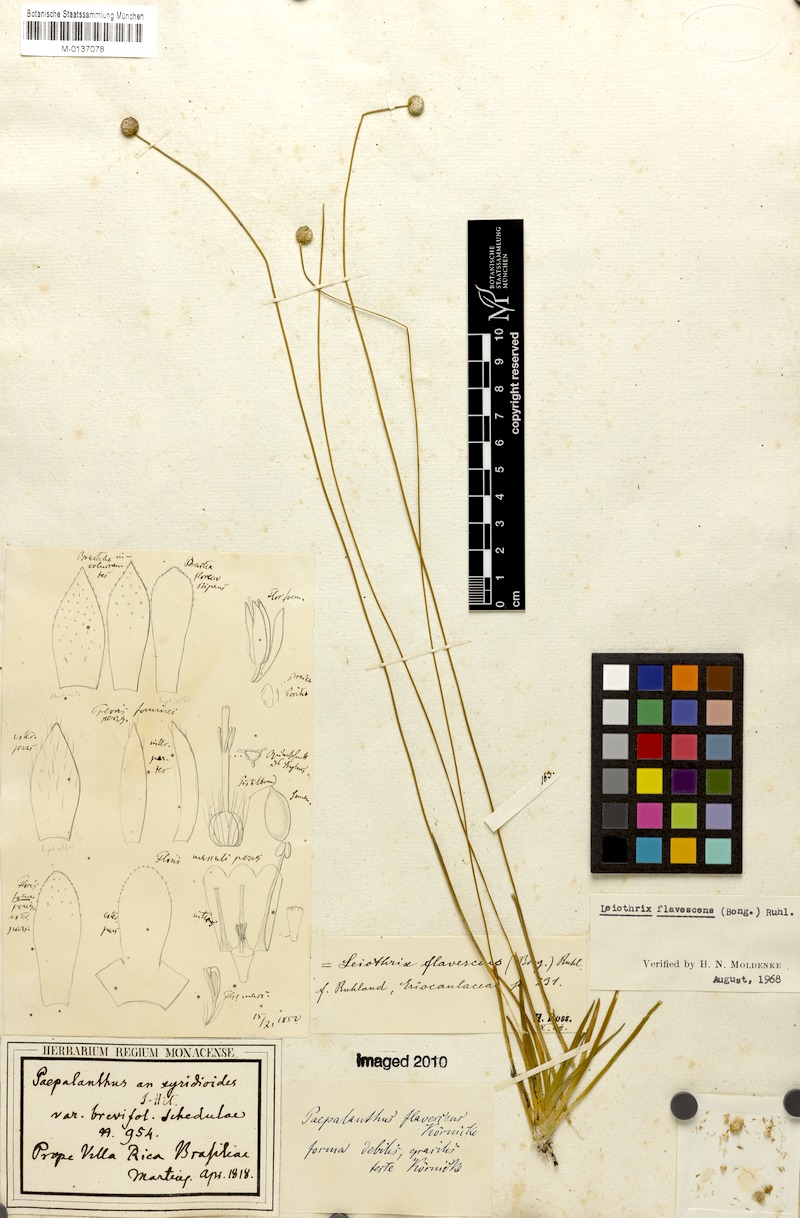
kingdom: Plantae
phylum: Tracheophyta
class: Liliopsida
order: Poales
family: Eriocaulaceae
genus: Leiothrix
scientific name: Leiothrix flavescens
